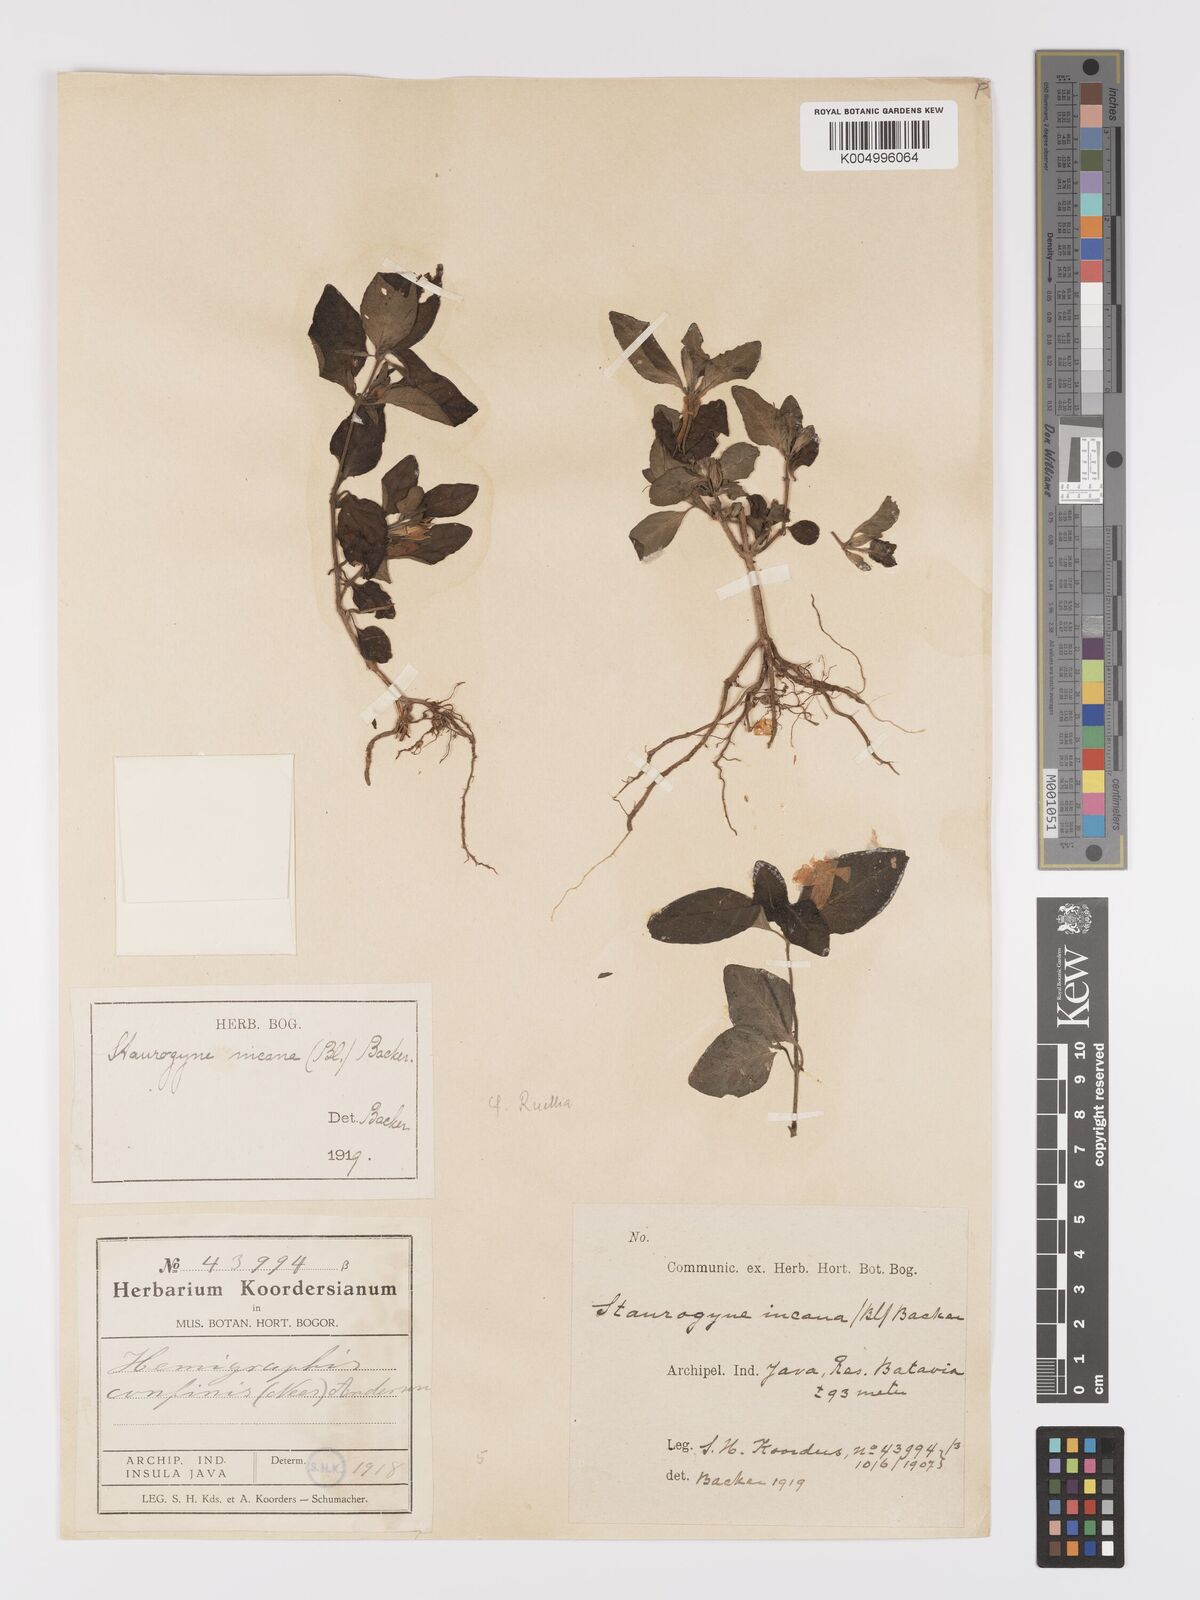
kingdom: Plantae
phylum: Tracheophyta
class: Magnoliopsida
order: Lamiales
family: Acanthaceae
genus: Ruellia
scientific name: Ruellia
